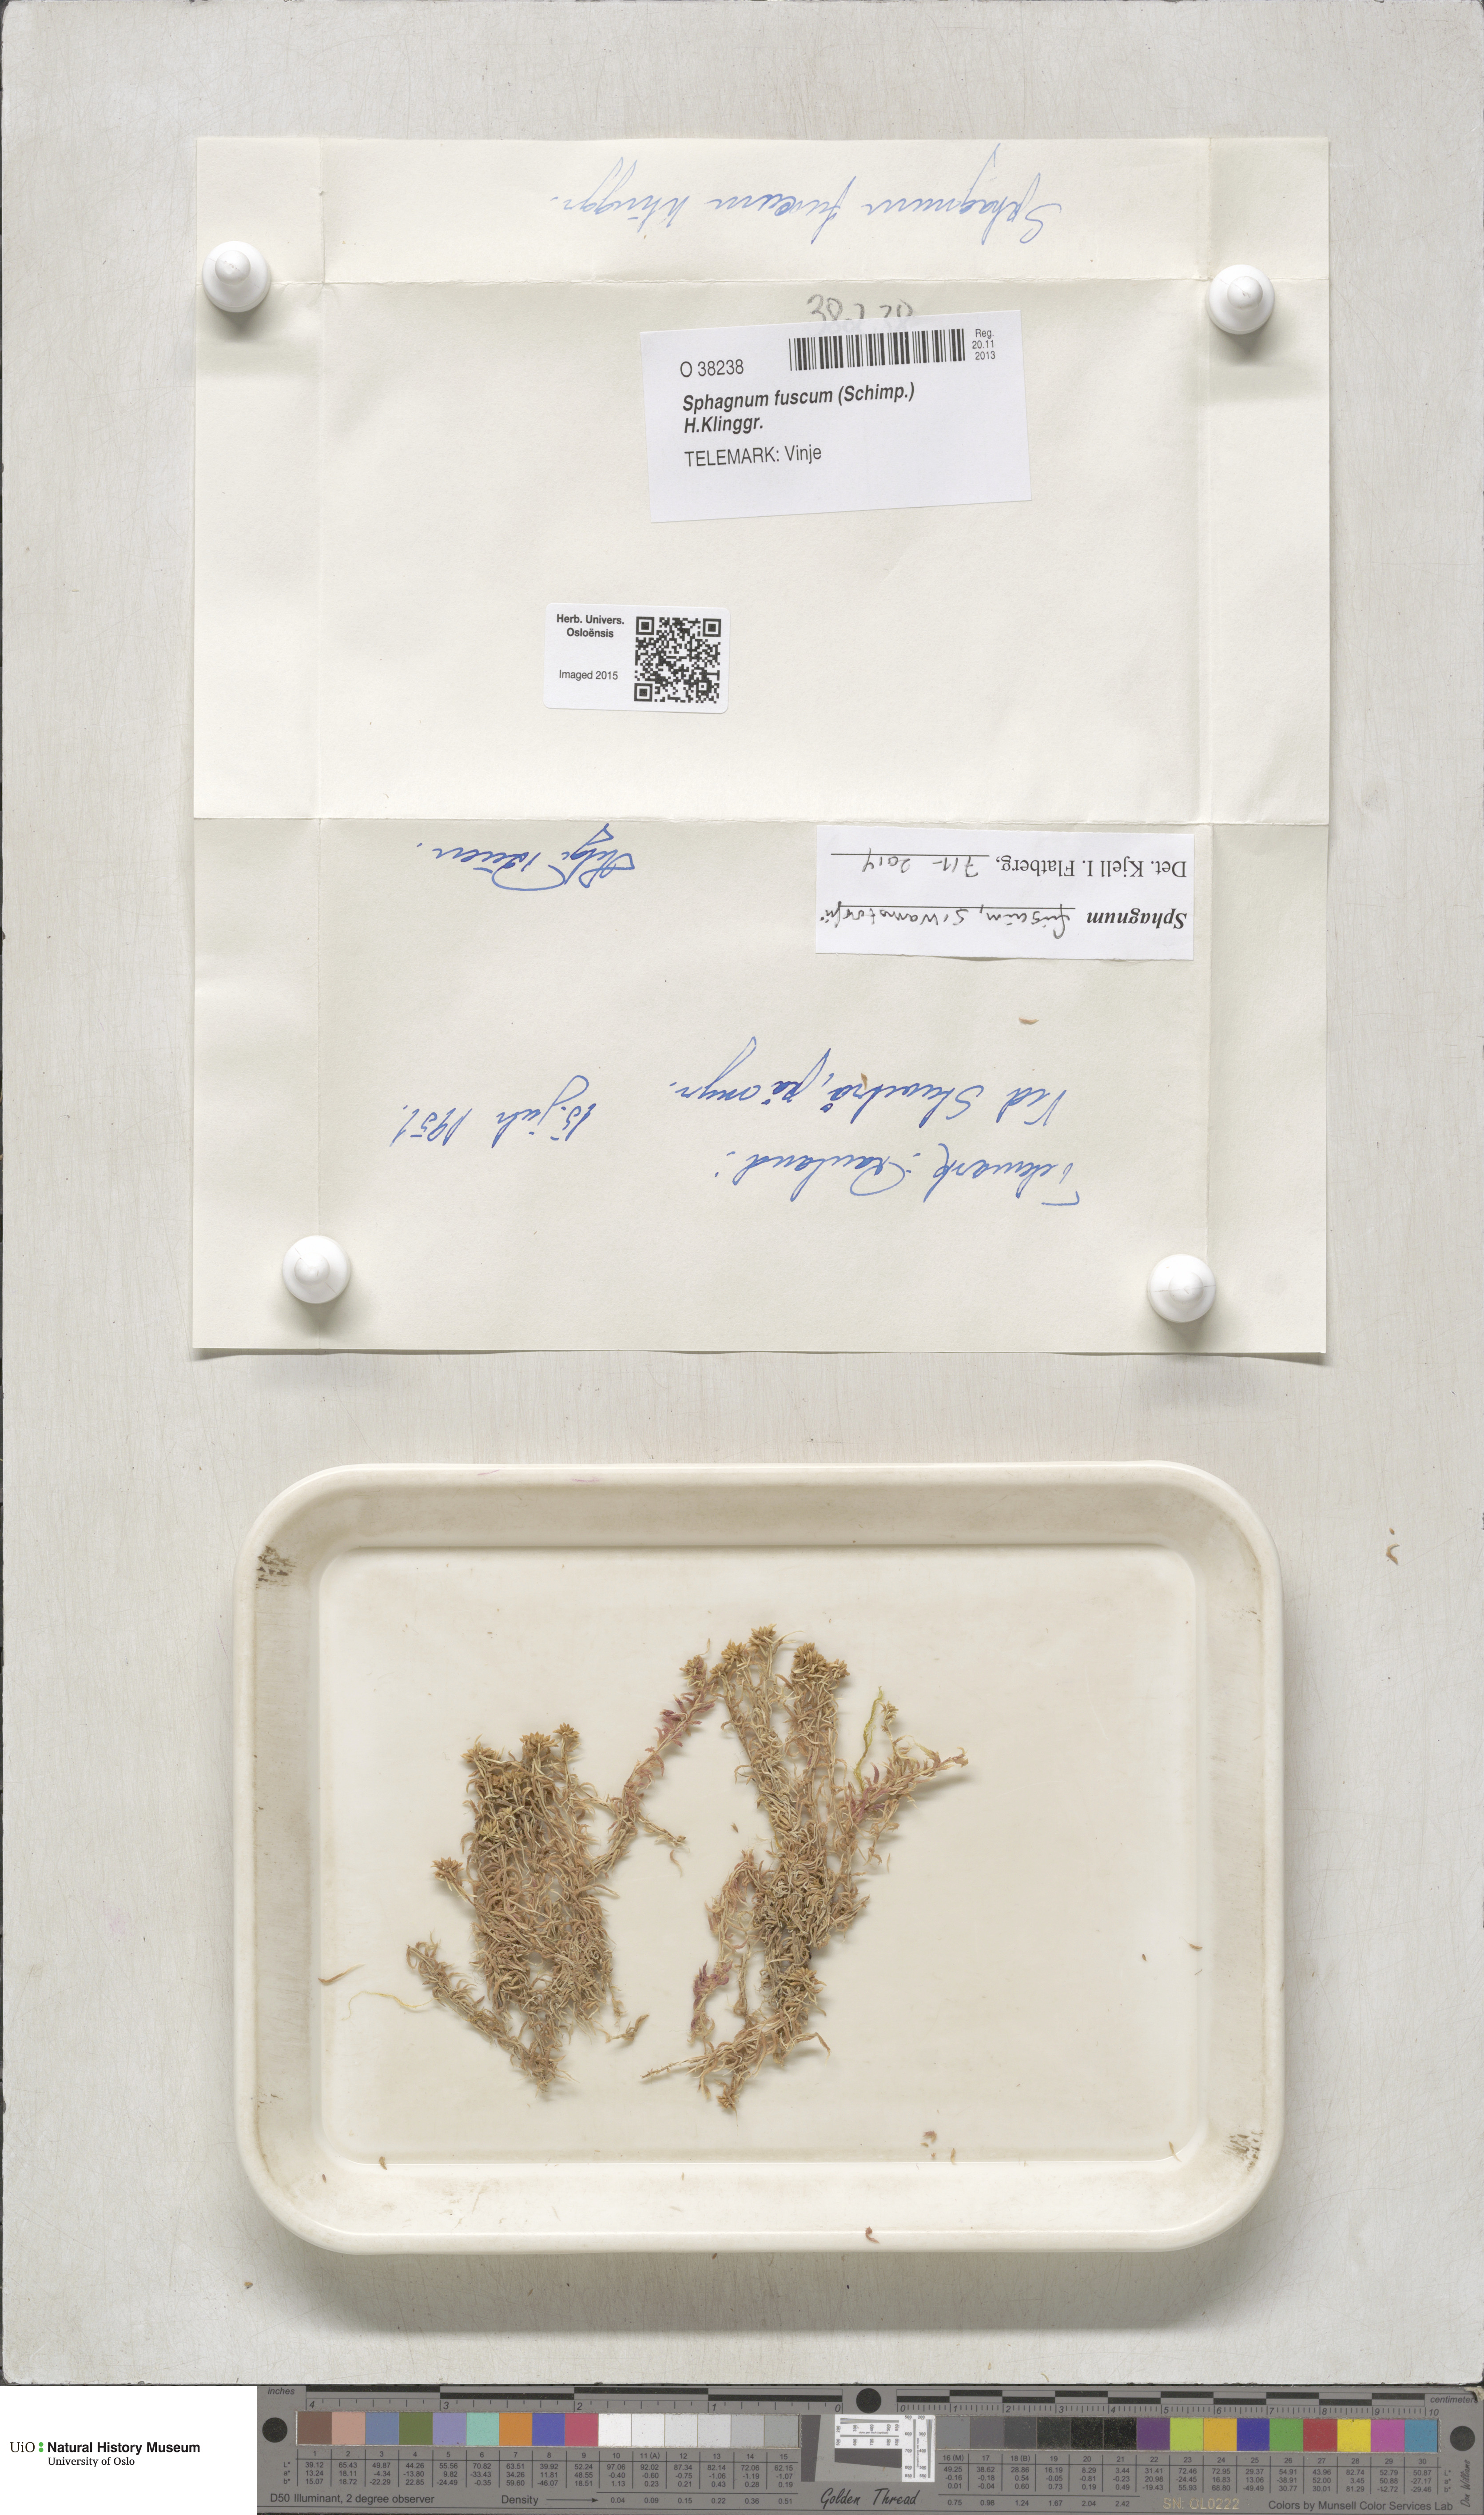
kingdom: Plantae
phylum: Bryophyta
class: Sphagnopsida
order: Sphagnales
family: Sphagnaceae
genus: Sphagnum
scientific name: Sphagnum fuscum
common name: Brown peat moss
